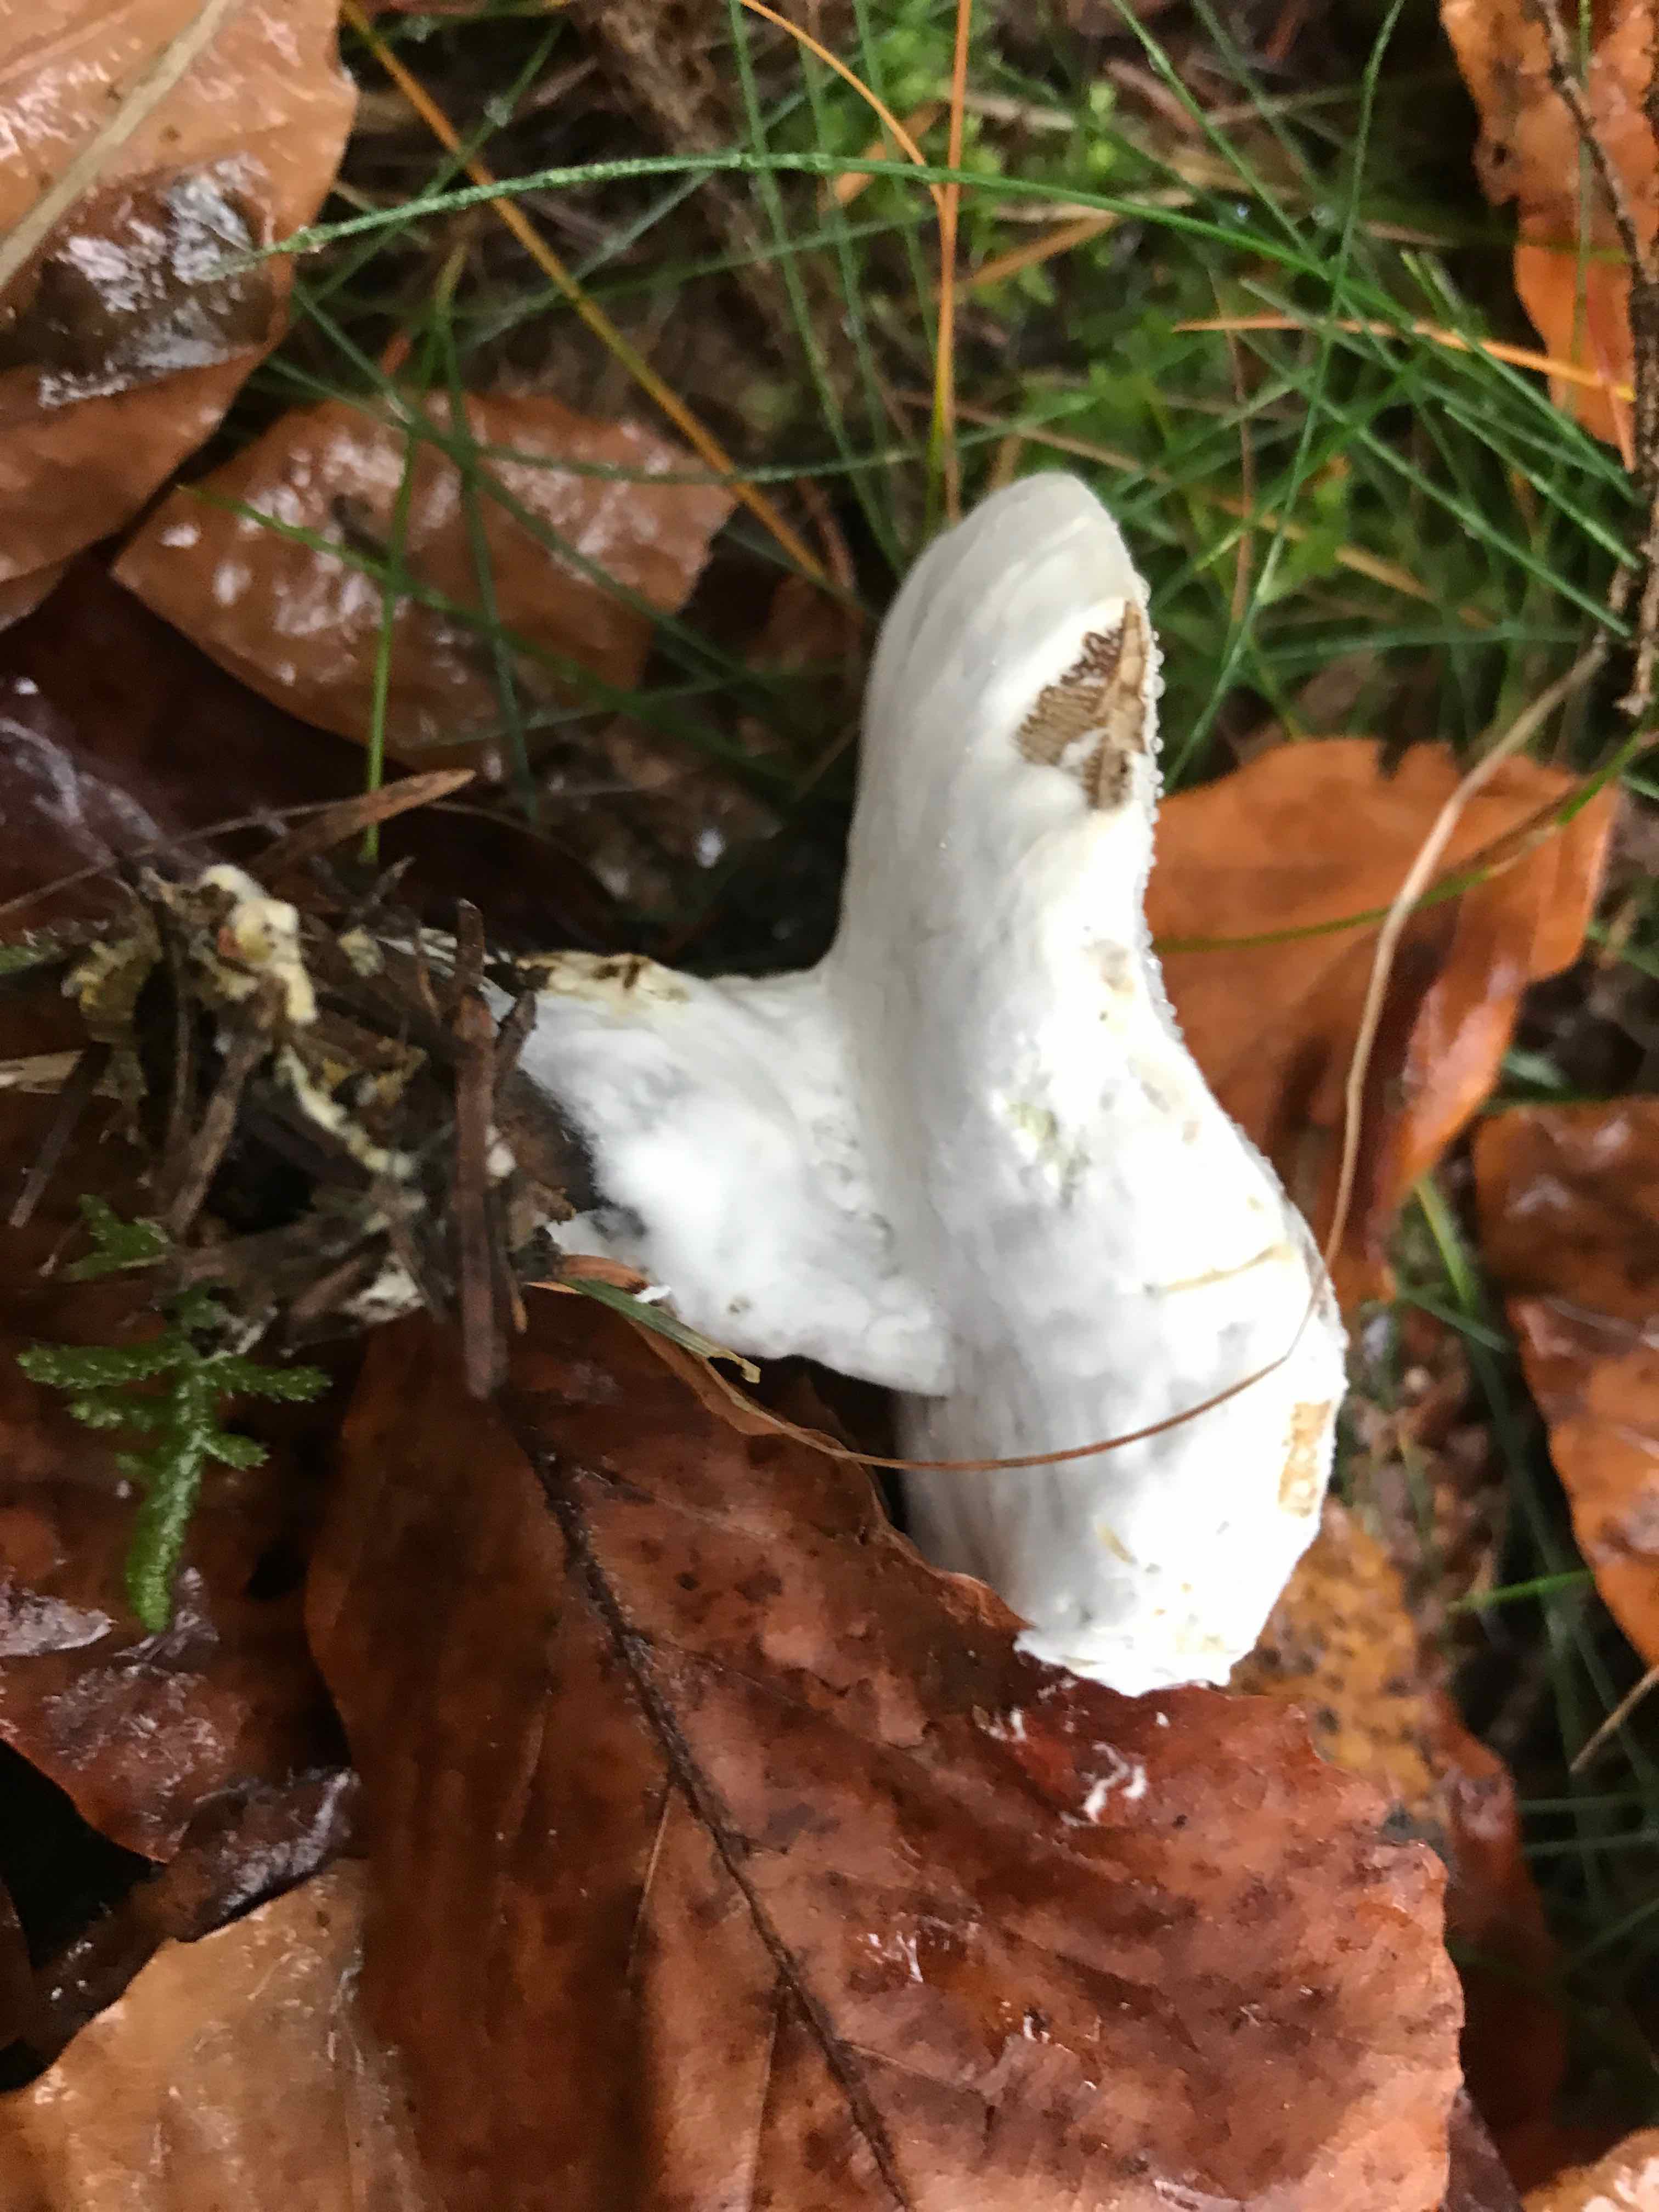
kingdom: Fungi
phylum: Ascomycota
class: Sordariomycetes
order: Hypocreales
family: Hypocreaceae
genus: Hypomyces
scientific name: Hypomyces
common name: snylteskorpe
